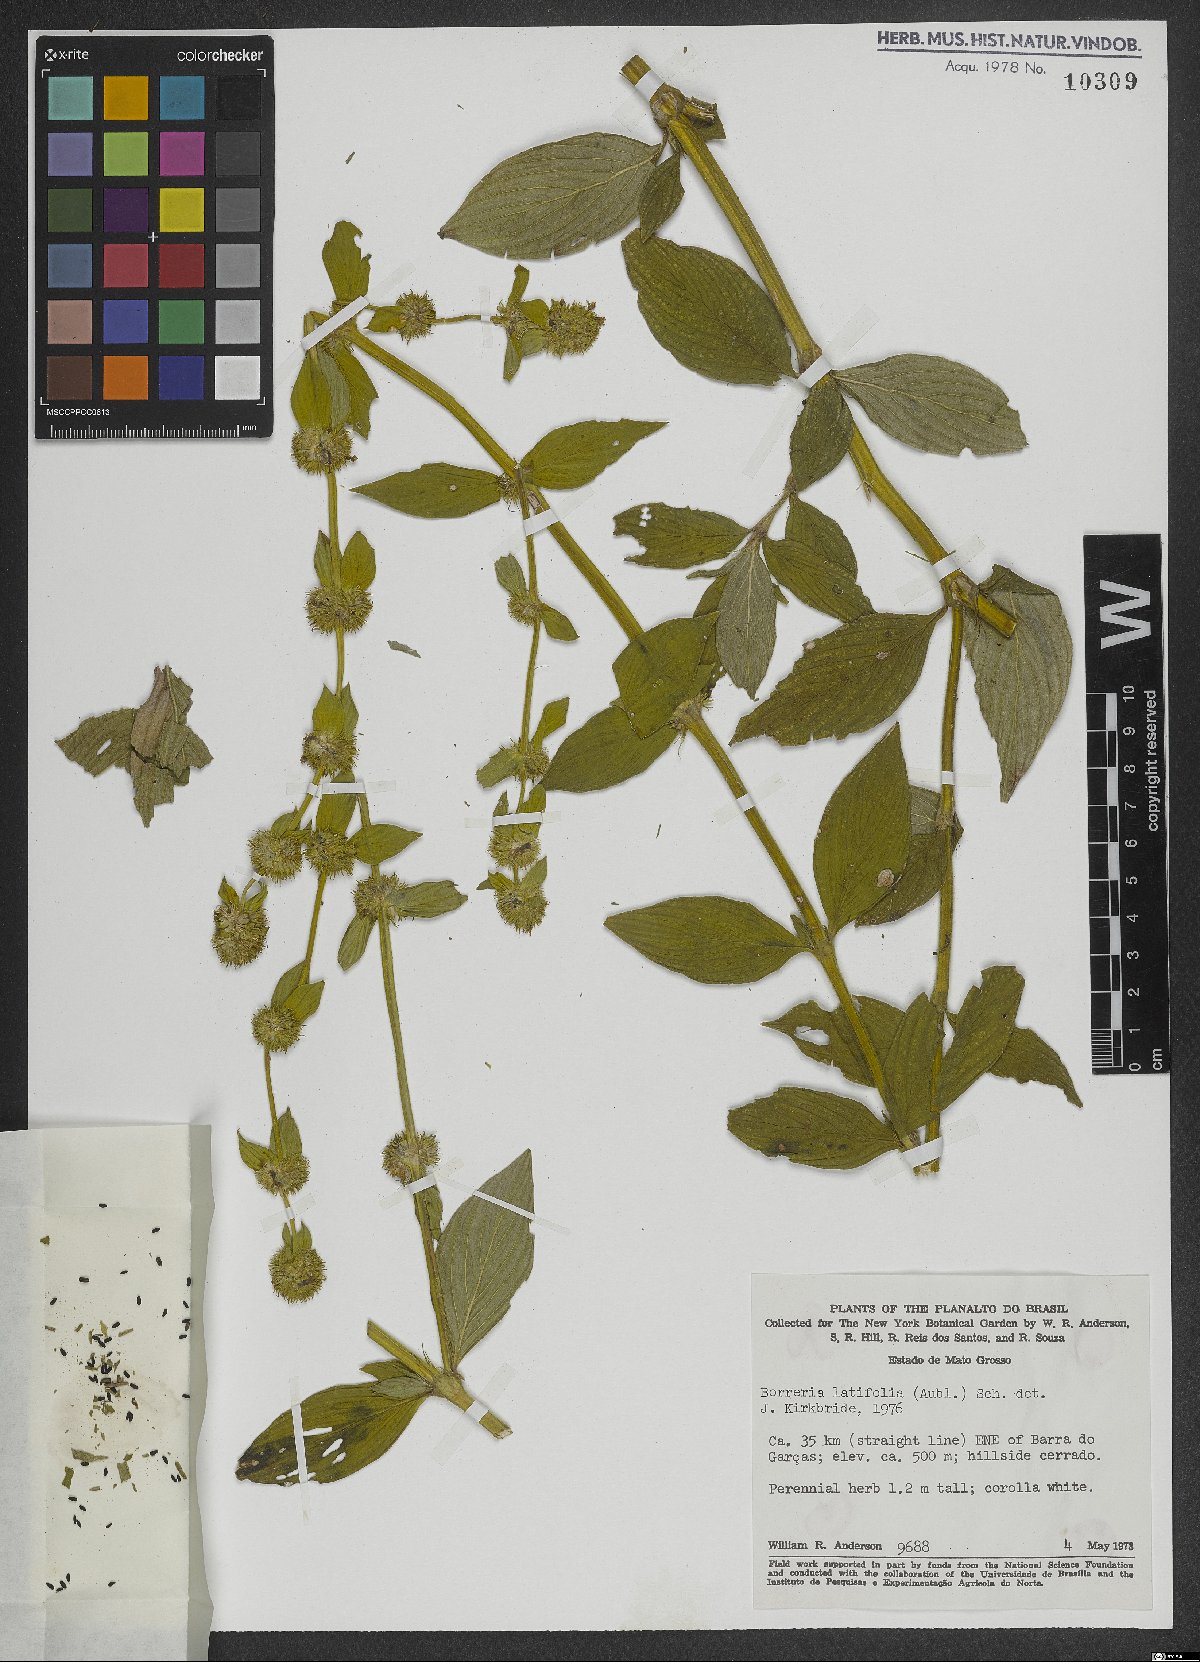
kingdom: Plantae
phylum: Tracheophyta
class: Magnoliopsida
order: Gentianales
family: Rubiaceae
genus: Spermacoce
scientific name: Spermacoce latifolia
